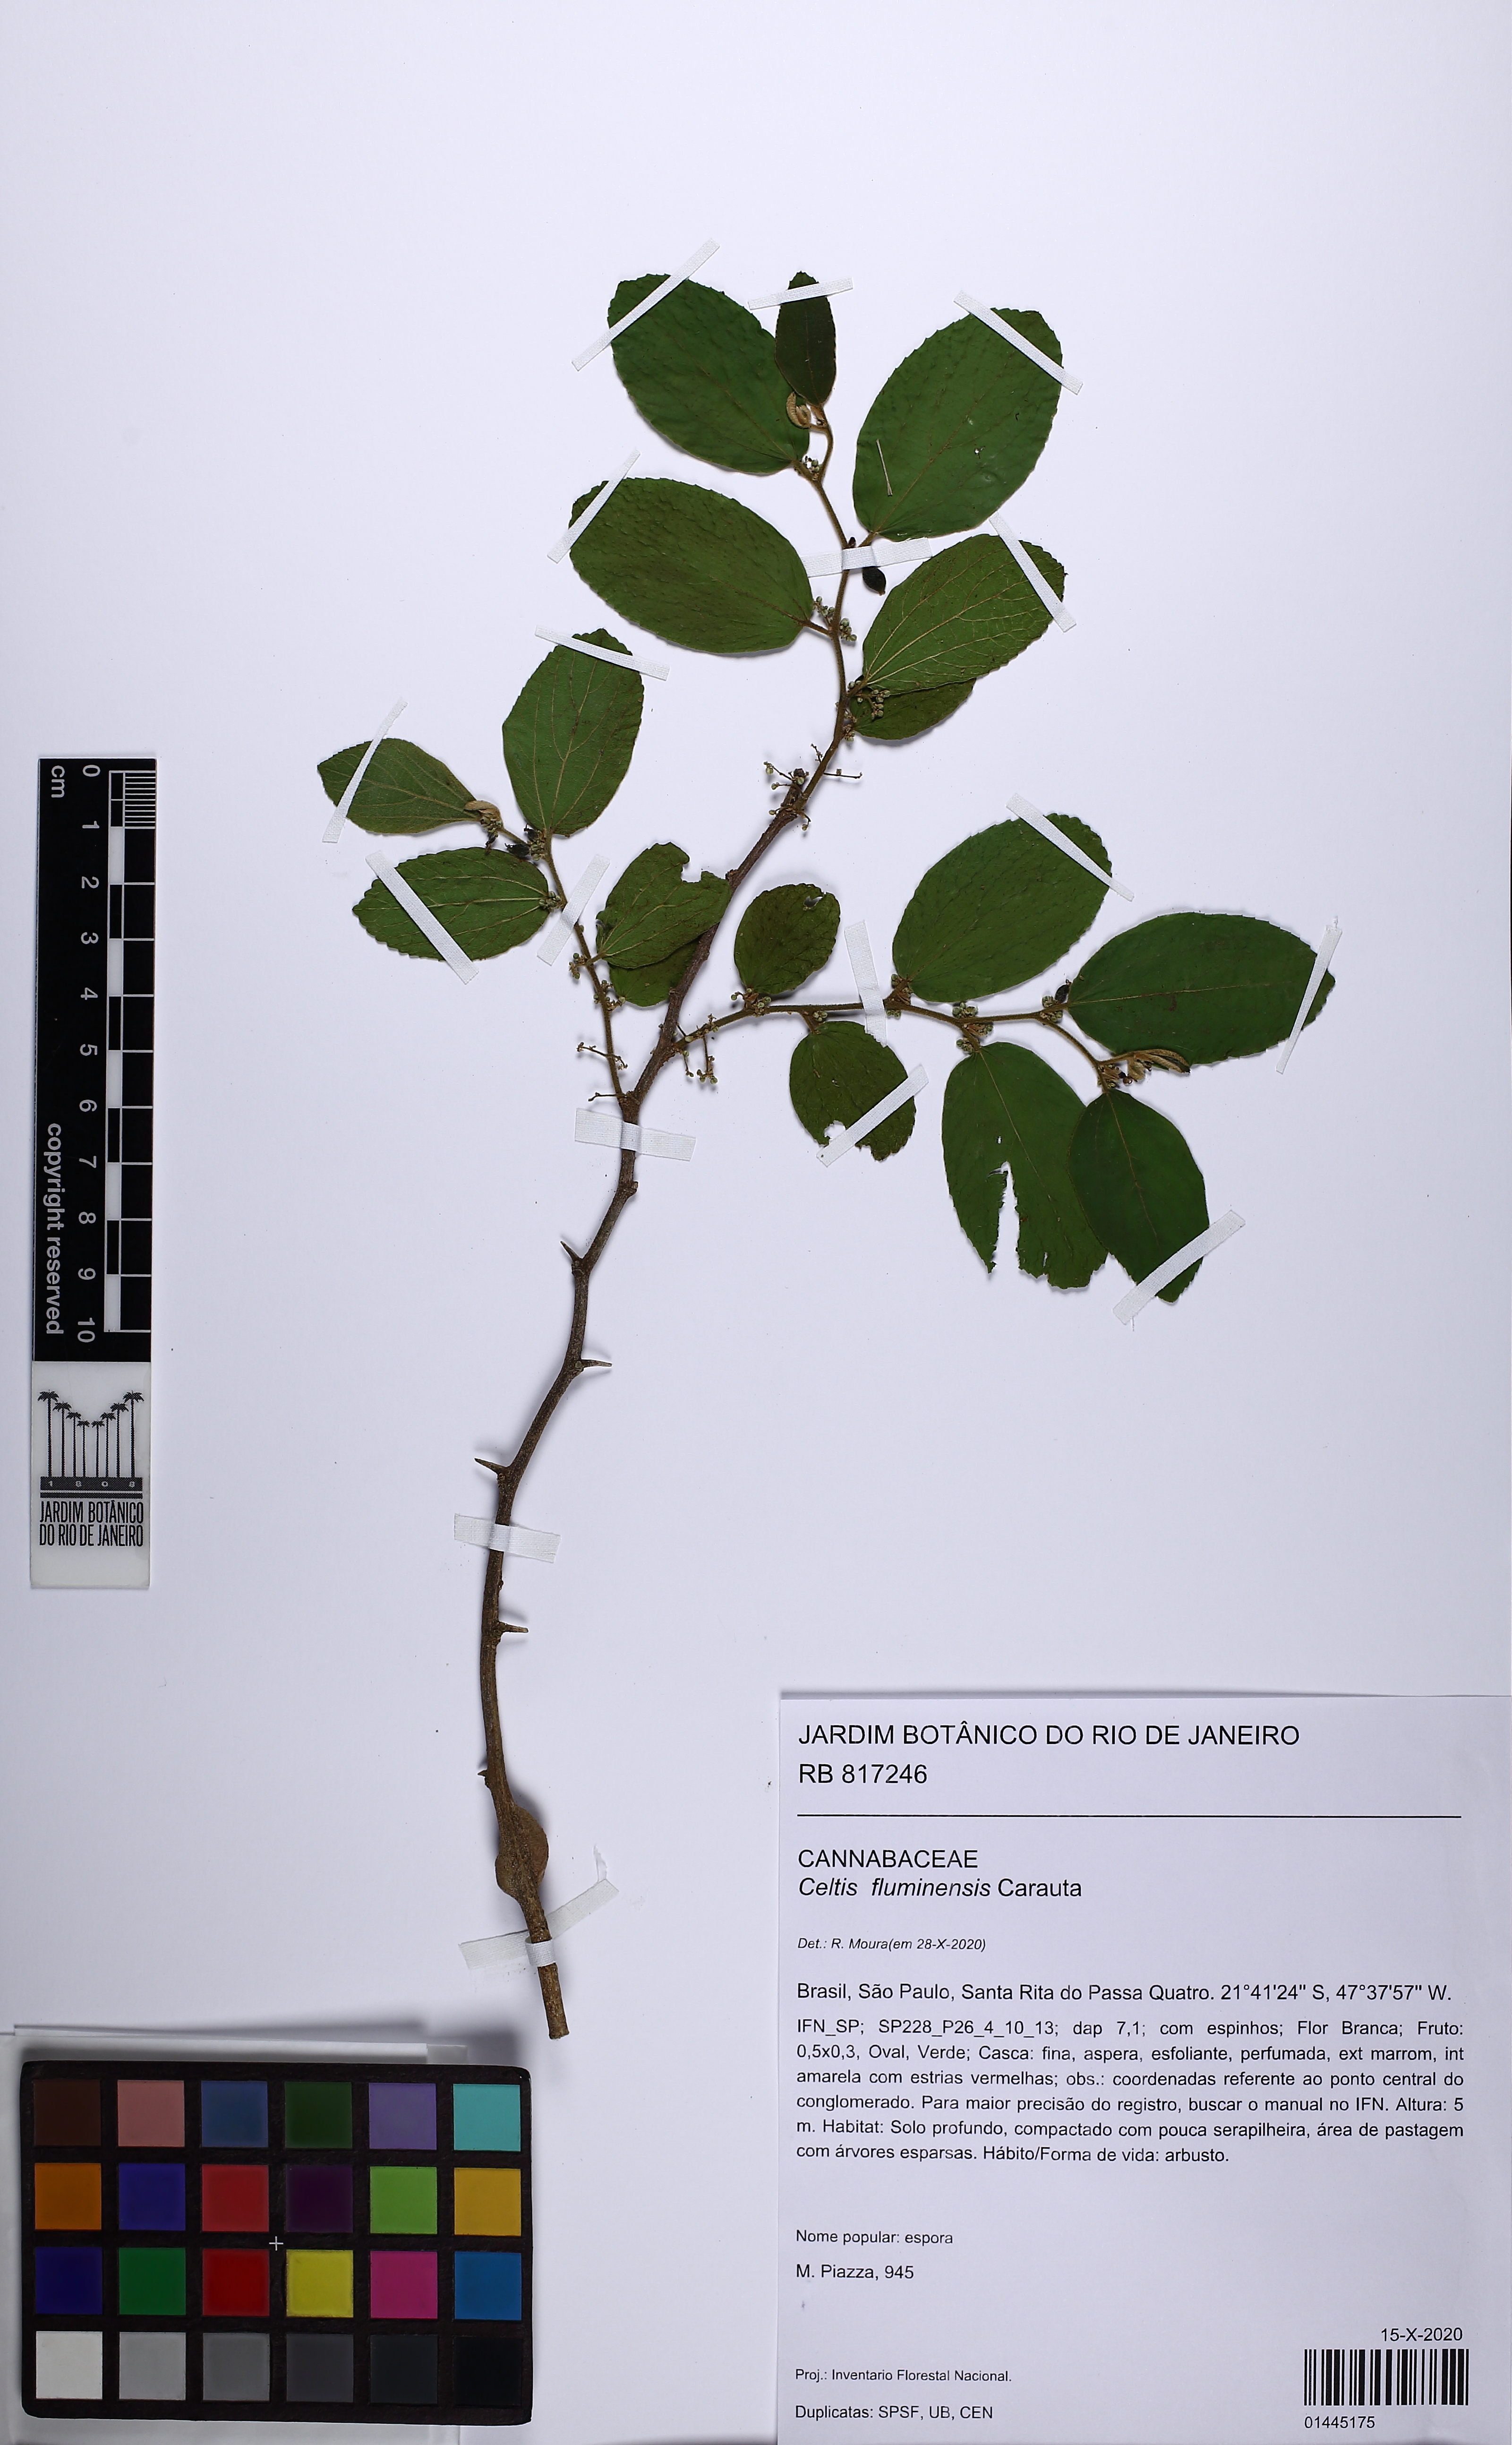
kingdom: Plantae
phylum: Tracheophyta
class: Magnoliopsida
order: Rosales
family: Cannabaceae
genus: Celtis
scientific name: Celtis brasiliensis
